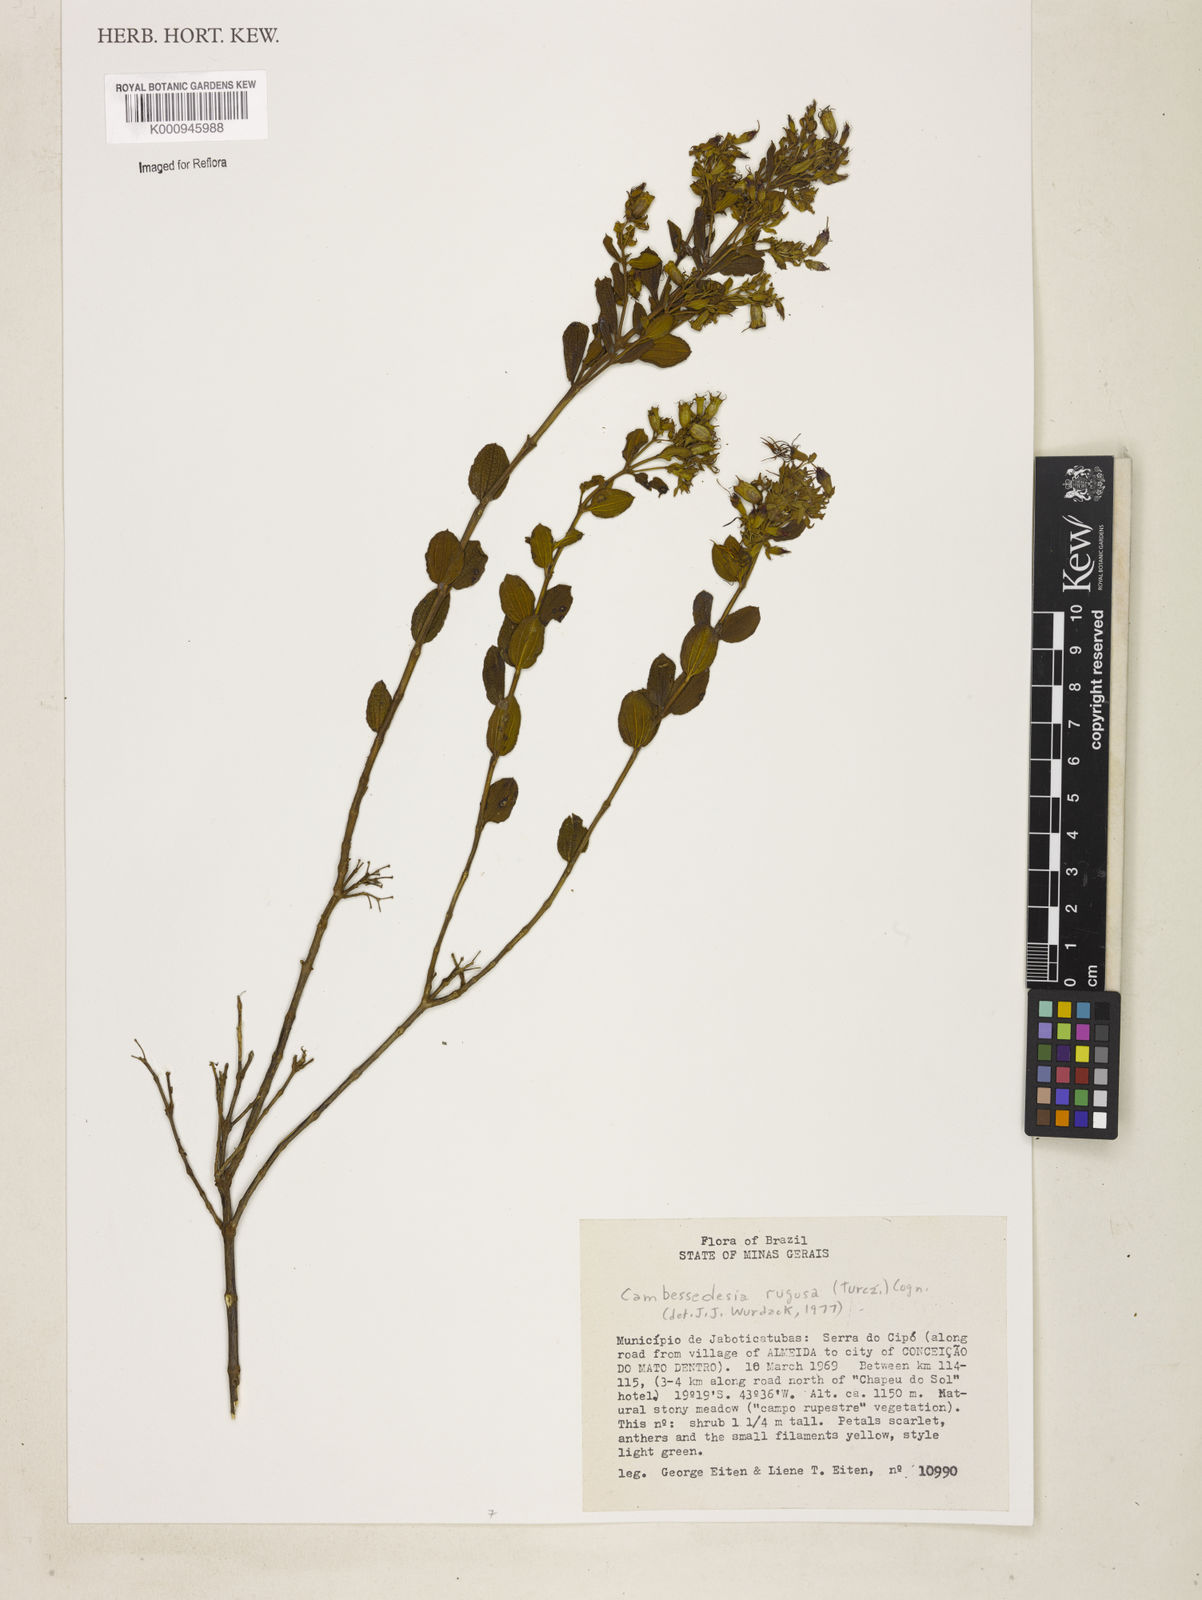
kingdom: Plantae
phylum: Tracheophyta
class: Magnoliopsida
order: Myrtales
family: Melastomataceae
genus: Cambessedesia
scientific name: Cambessedesia corymbosa
